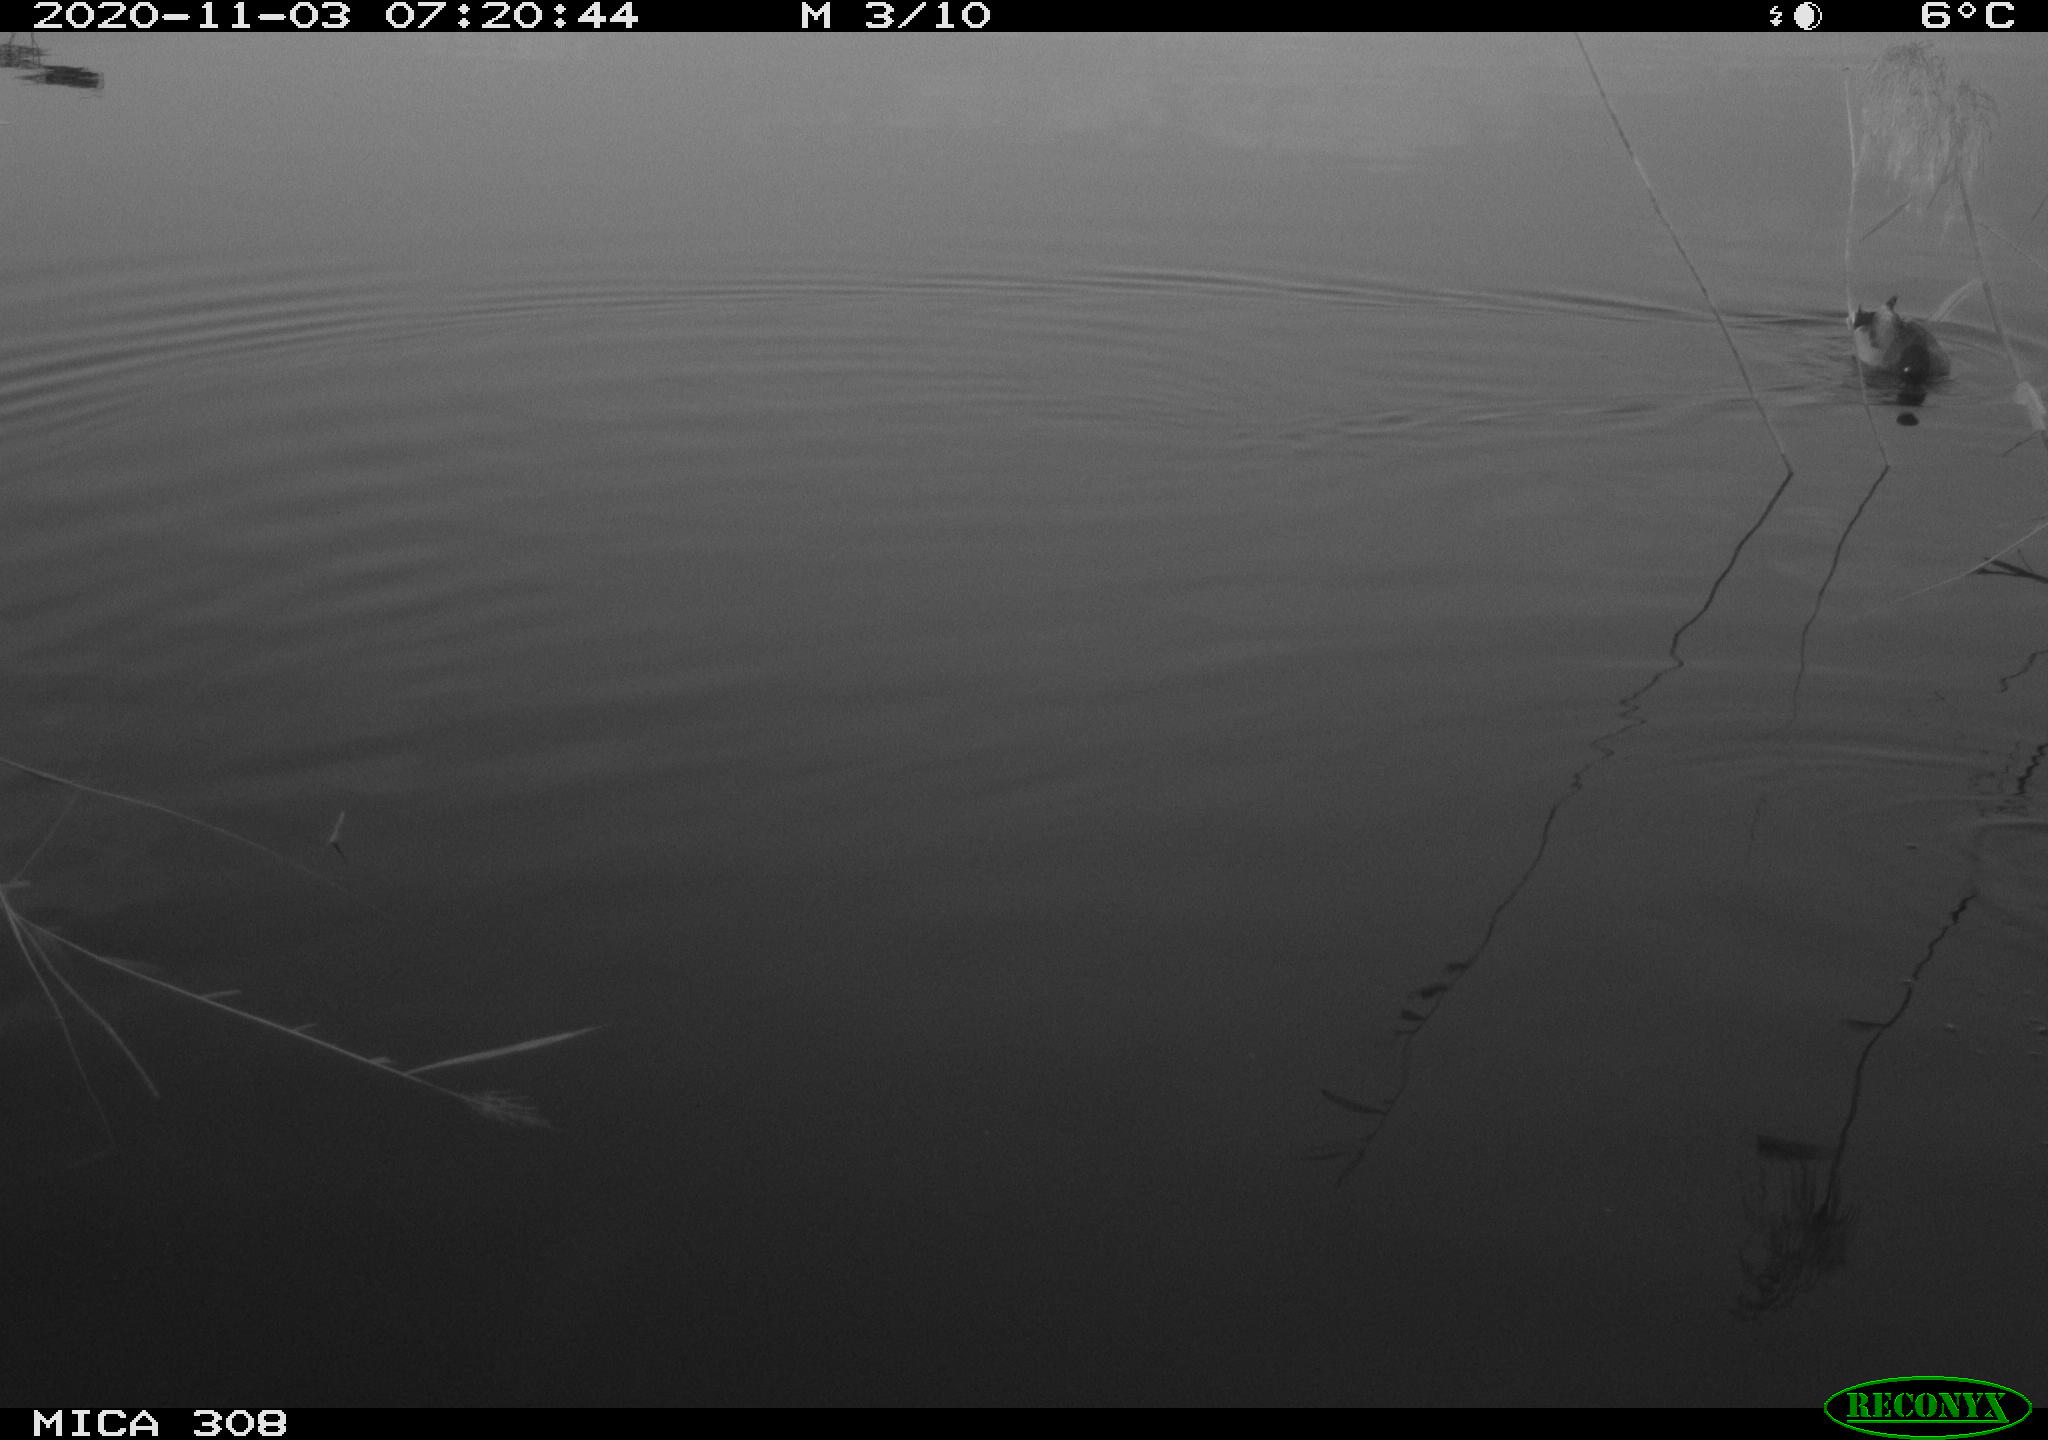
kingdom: Animalia
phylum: Chordata
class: Aves
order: Anseriformes
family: Anatidae
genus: Anas
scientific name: Anas platyrhynchos
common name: Mallard
